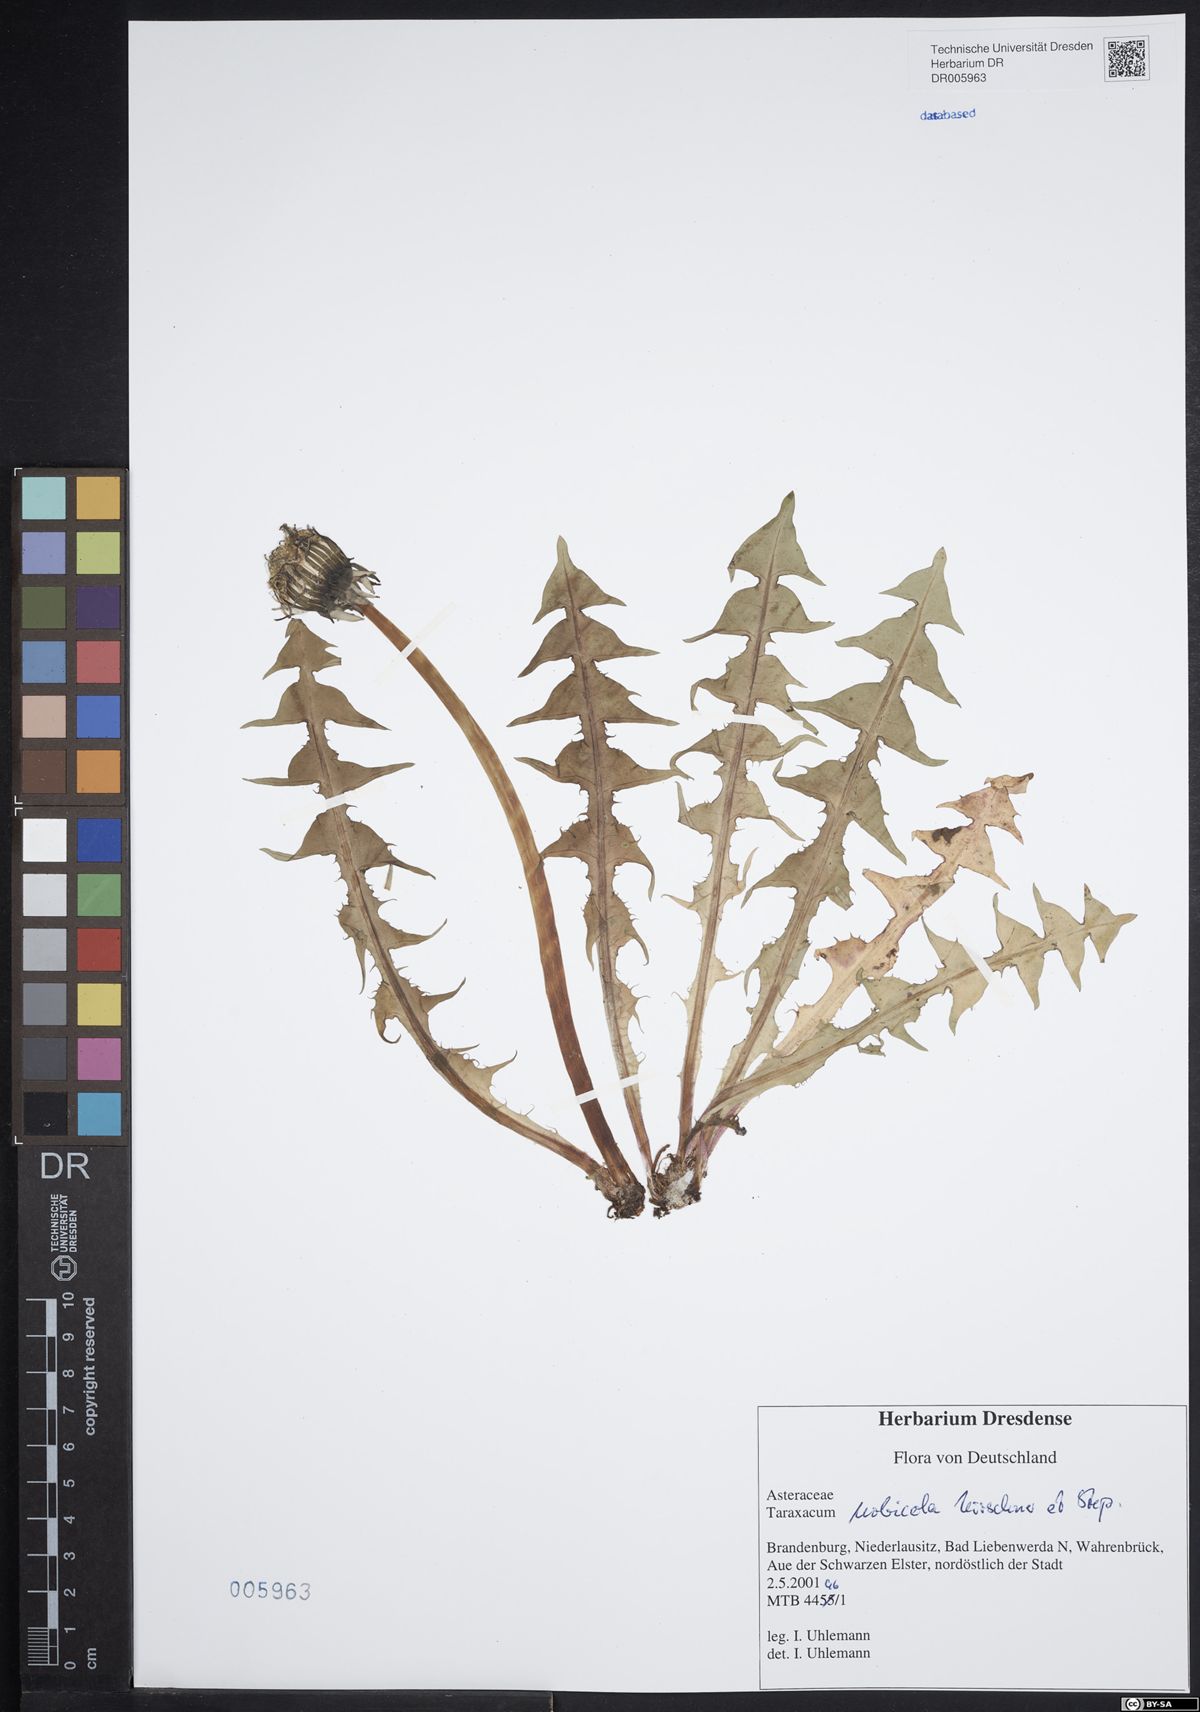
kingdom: Plantae
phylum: Tracheophyta
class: Magnoliopsida
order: Asterales
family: Asteraceae
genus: Taraxacum
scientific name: Taraxacum urbicola
